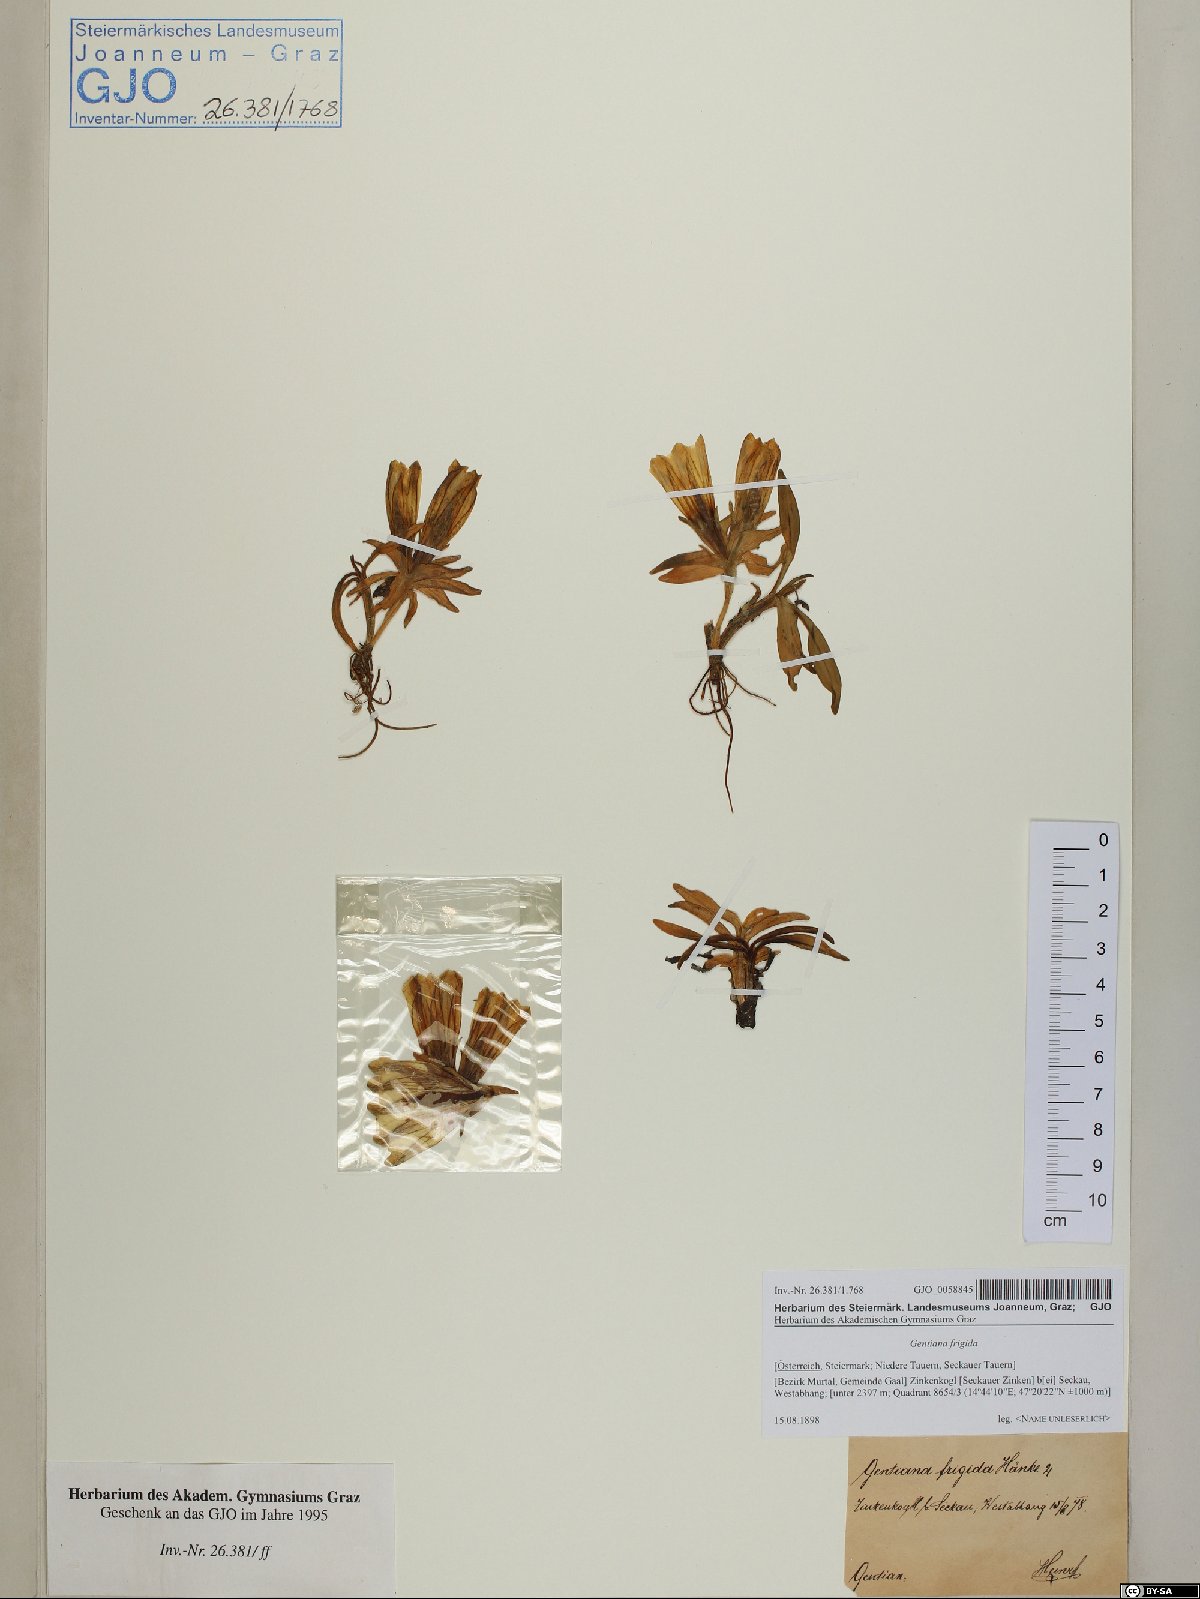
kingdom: Plantae
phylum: Tracheophyta
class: Magnoliopsida
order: Gentianales
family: Gentianaceae
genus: Gentiana
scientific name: Gentiana frigida
